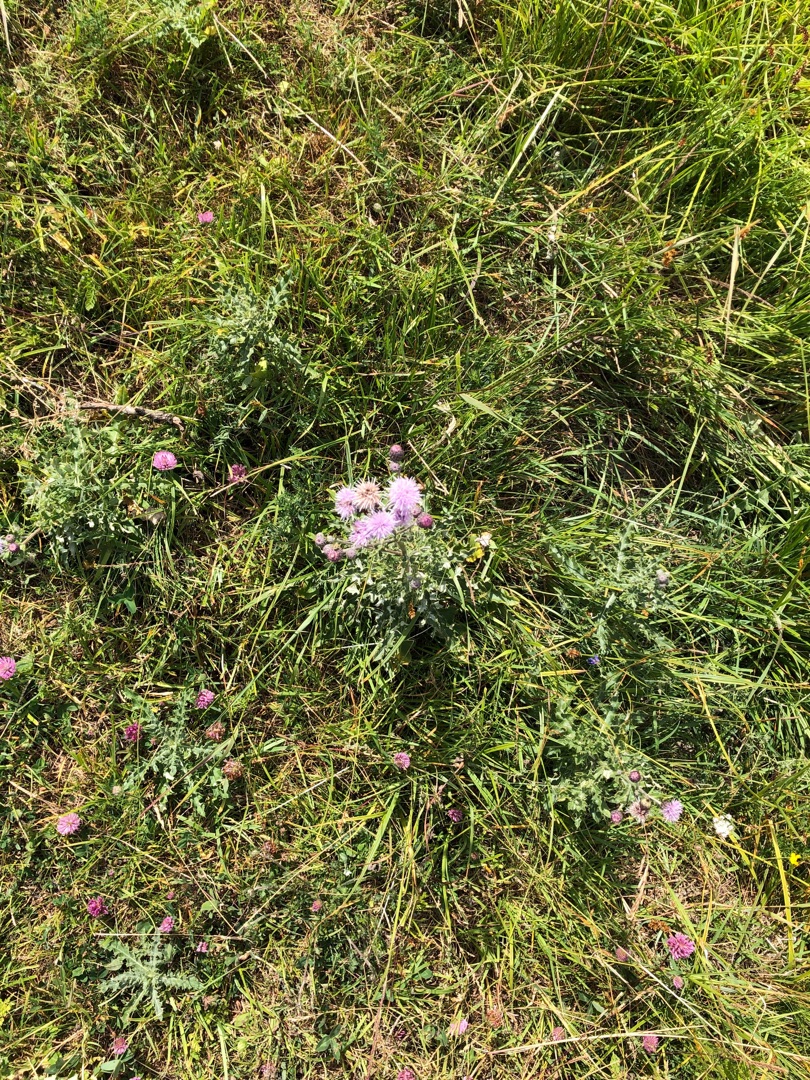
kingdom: Plantae
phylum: Tracheophyta
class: Magnoliopsida
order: Asterales
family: Asteraceae
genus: Cirsium
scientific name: Cirsium arvense
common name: Ager-tidsel
